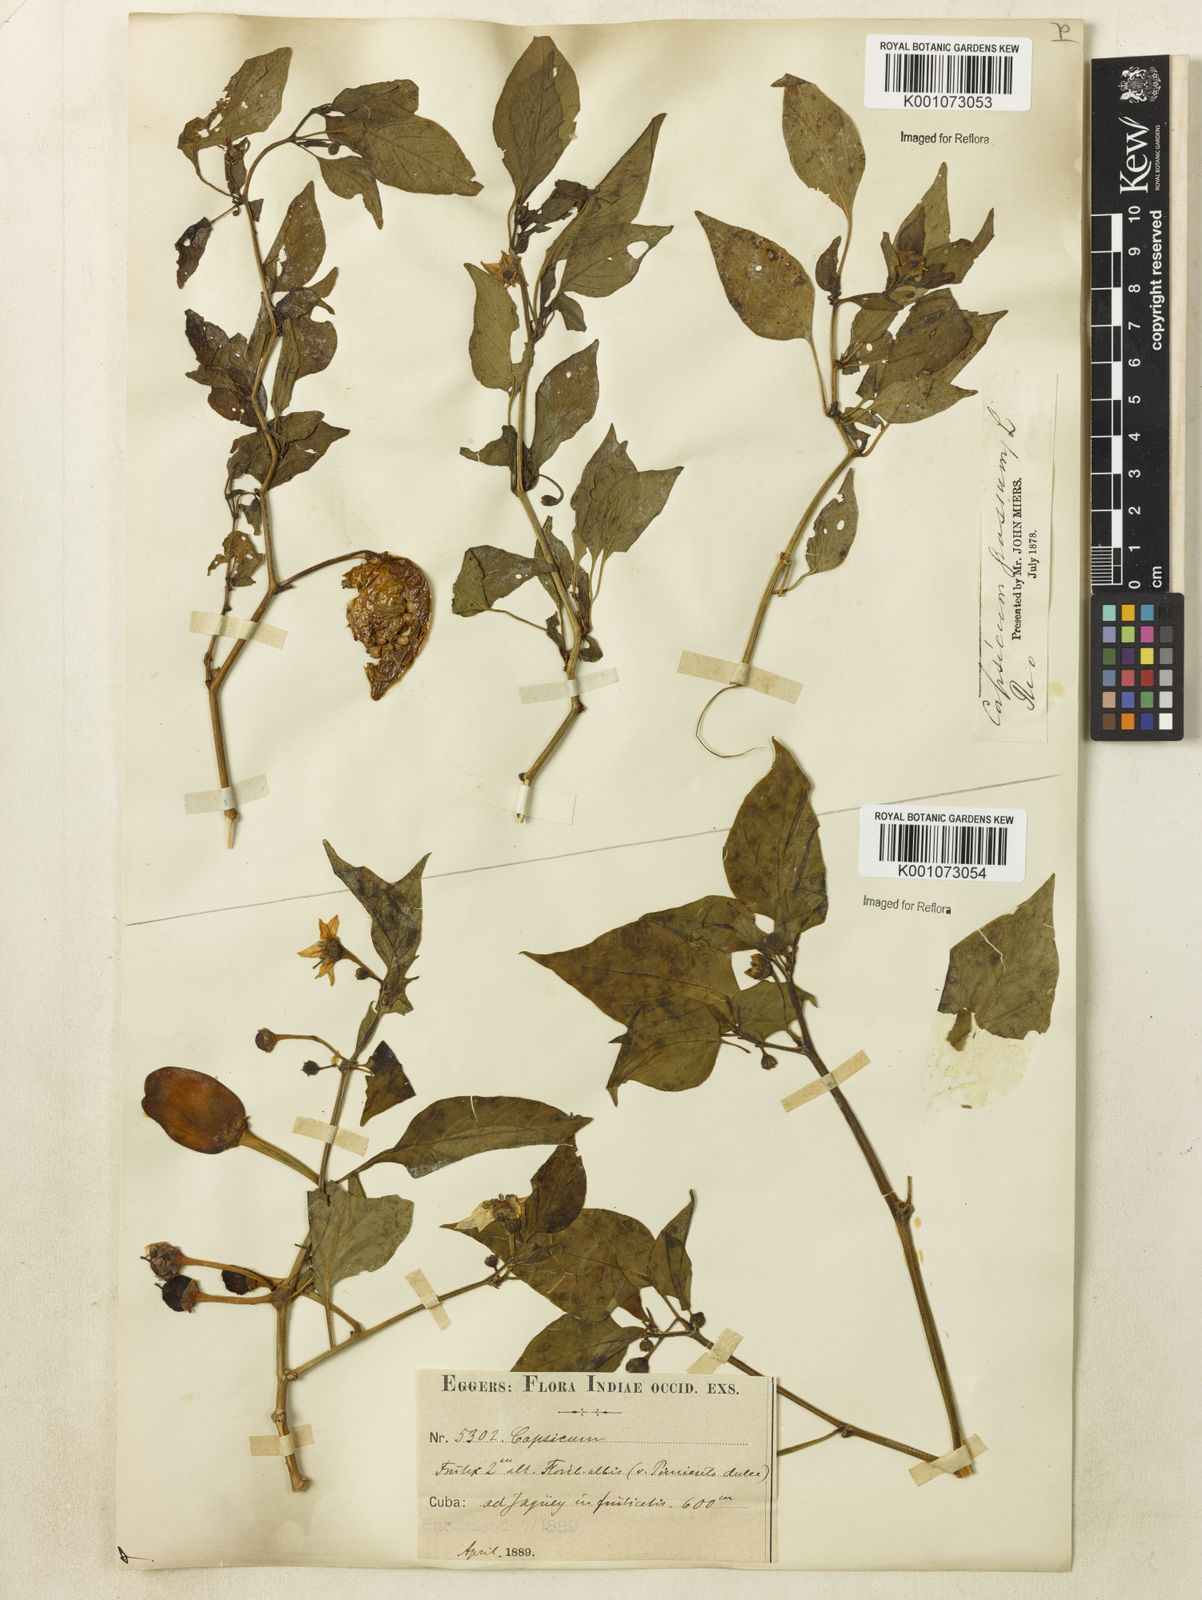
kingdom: Plantae
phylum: Tracheophyta
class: Magnoliopsida
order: Solanales
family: Solanaceae
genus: Capsicum
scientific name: Capsicum
